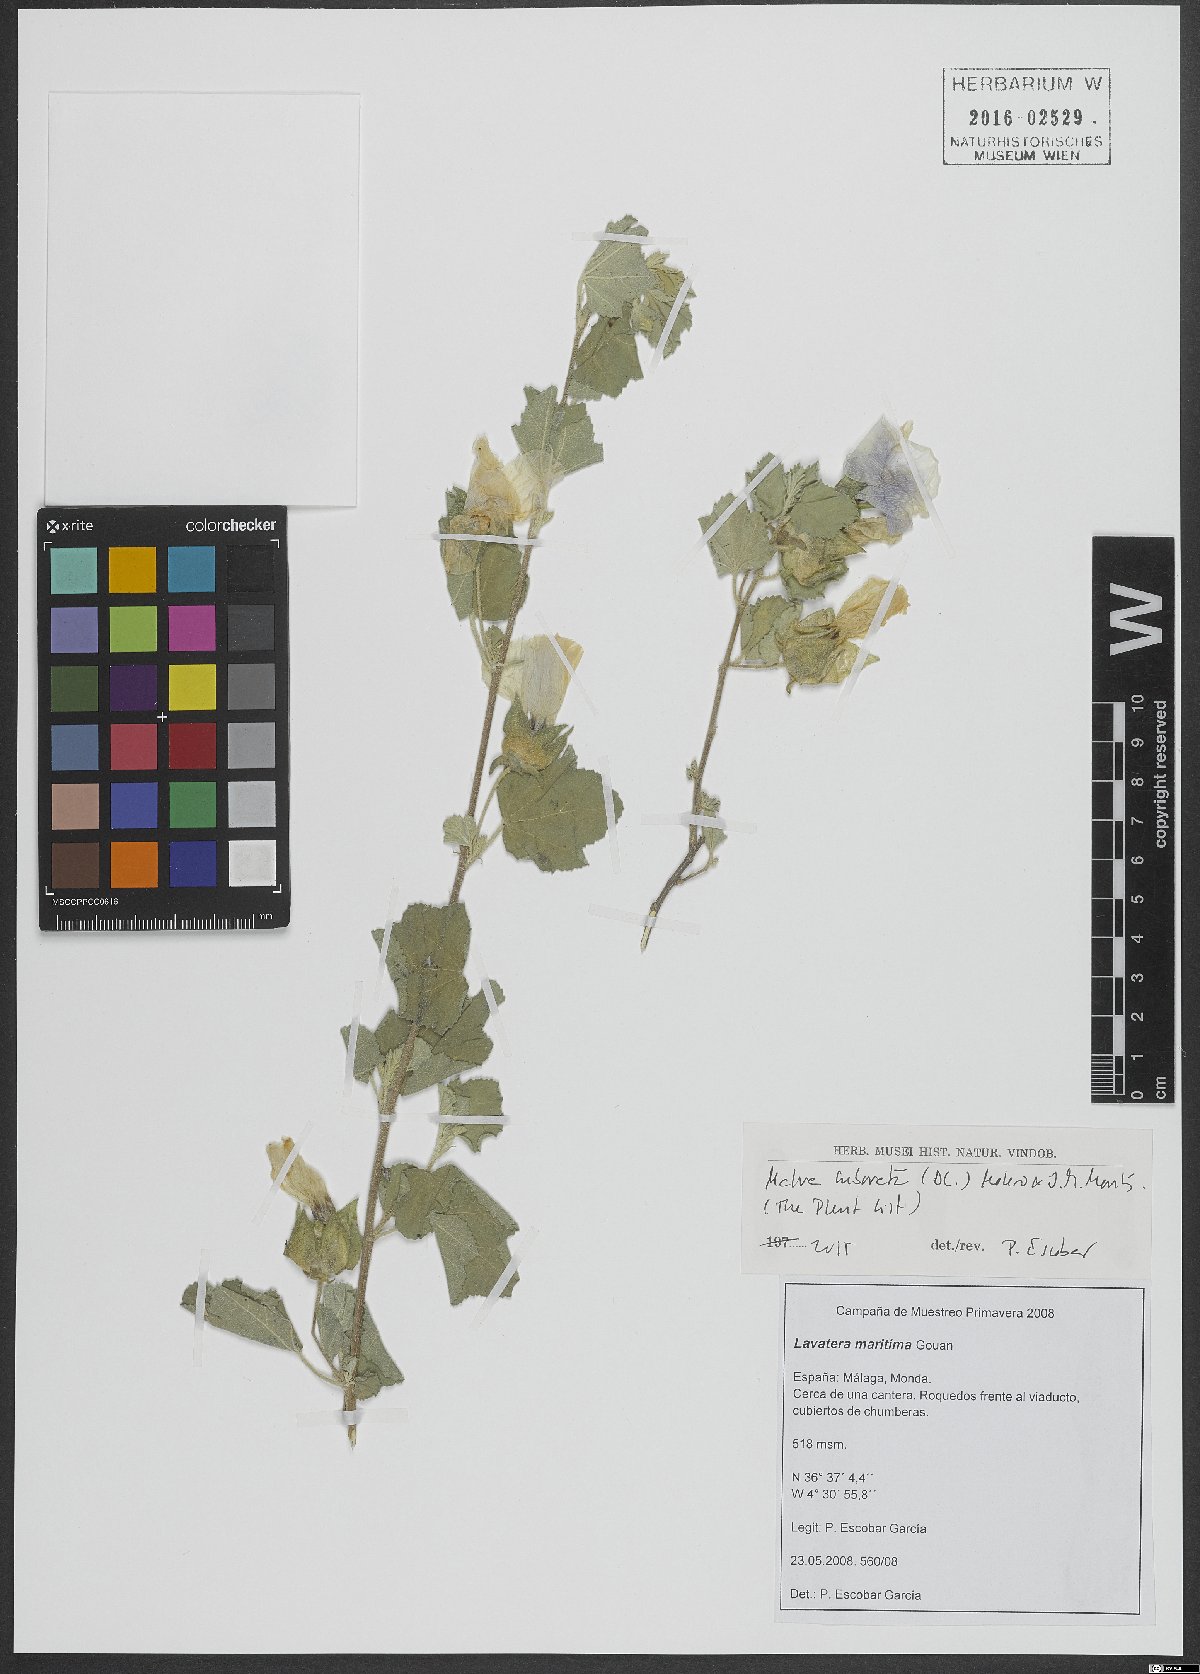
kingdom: Plantae
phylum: Tracheophyta
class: Magnoliopsida
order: Malvales
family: Malvaceae
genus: Malva
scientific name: Malva subovata
